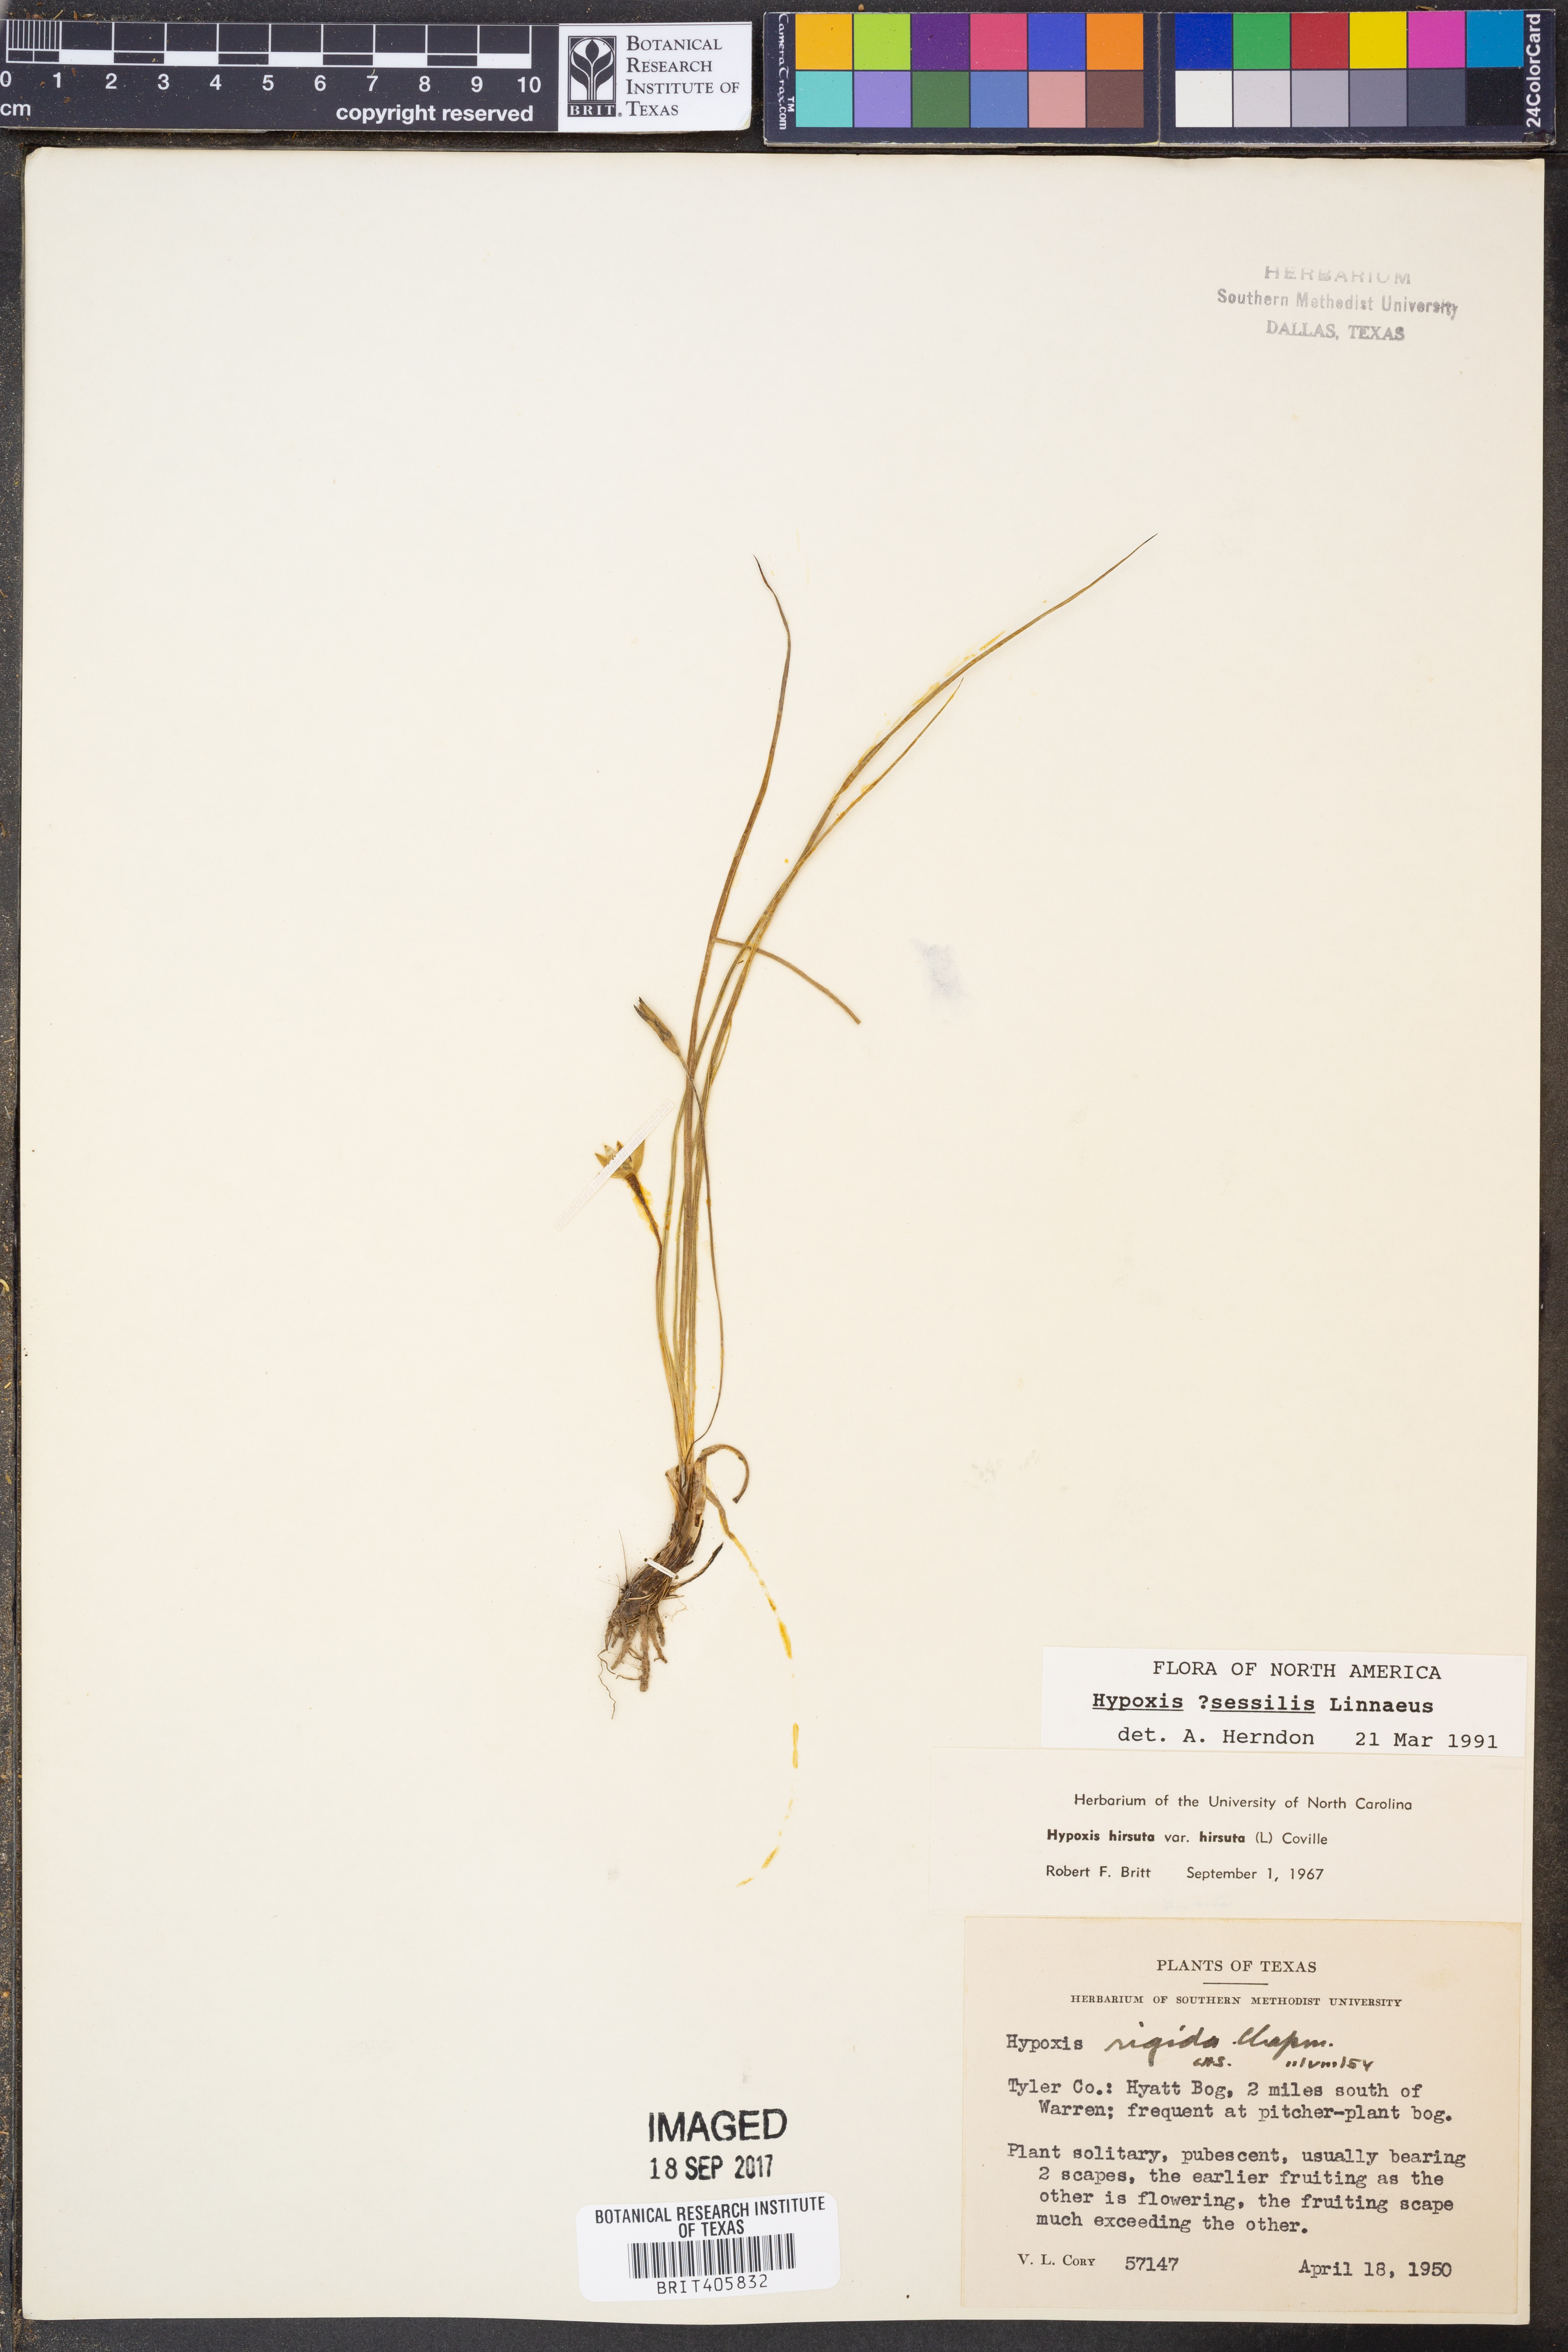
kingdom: Plantae
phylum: Tracheophyta
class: Liliopsida
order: Asparagales
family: Hypoxidaceae
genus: Hypoxis
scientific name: Hypoxis sessilis
